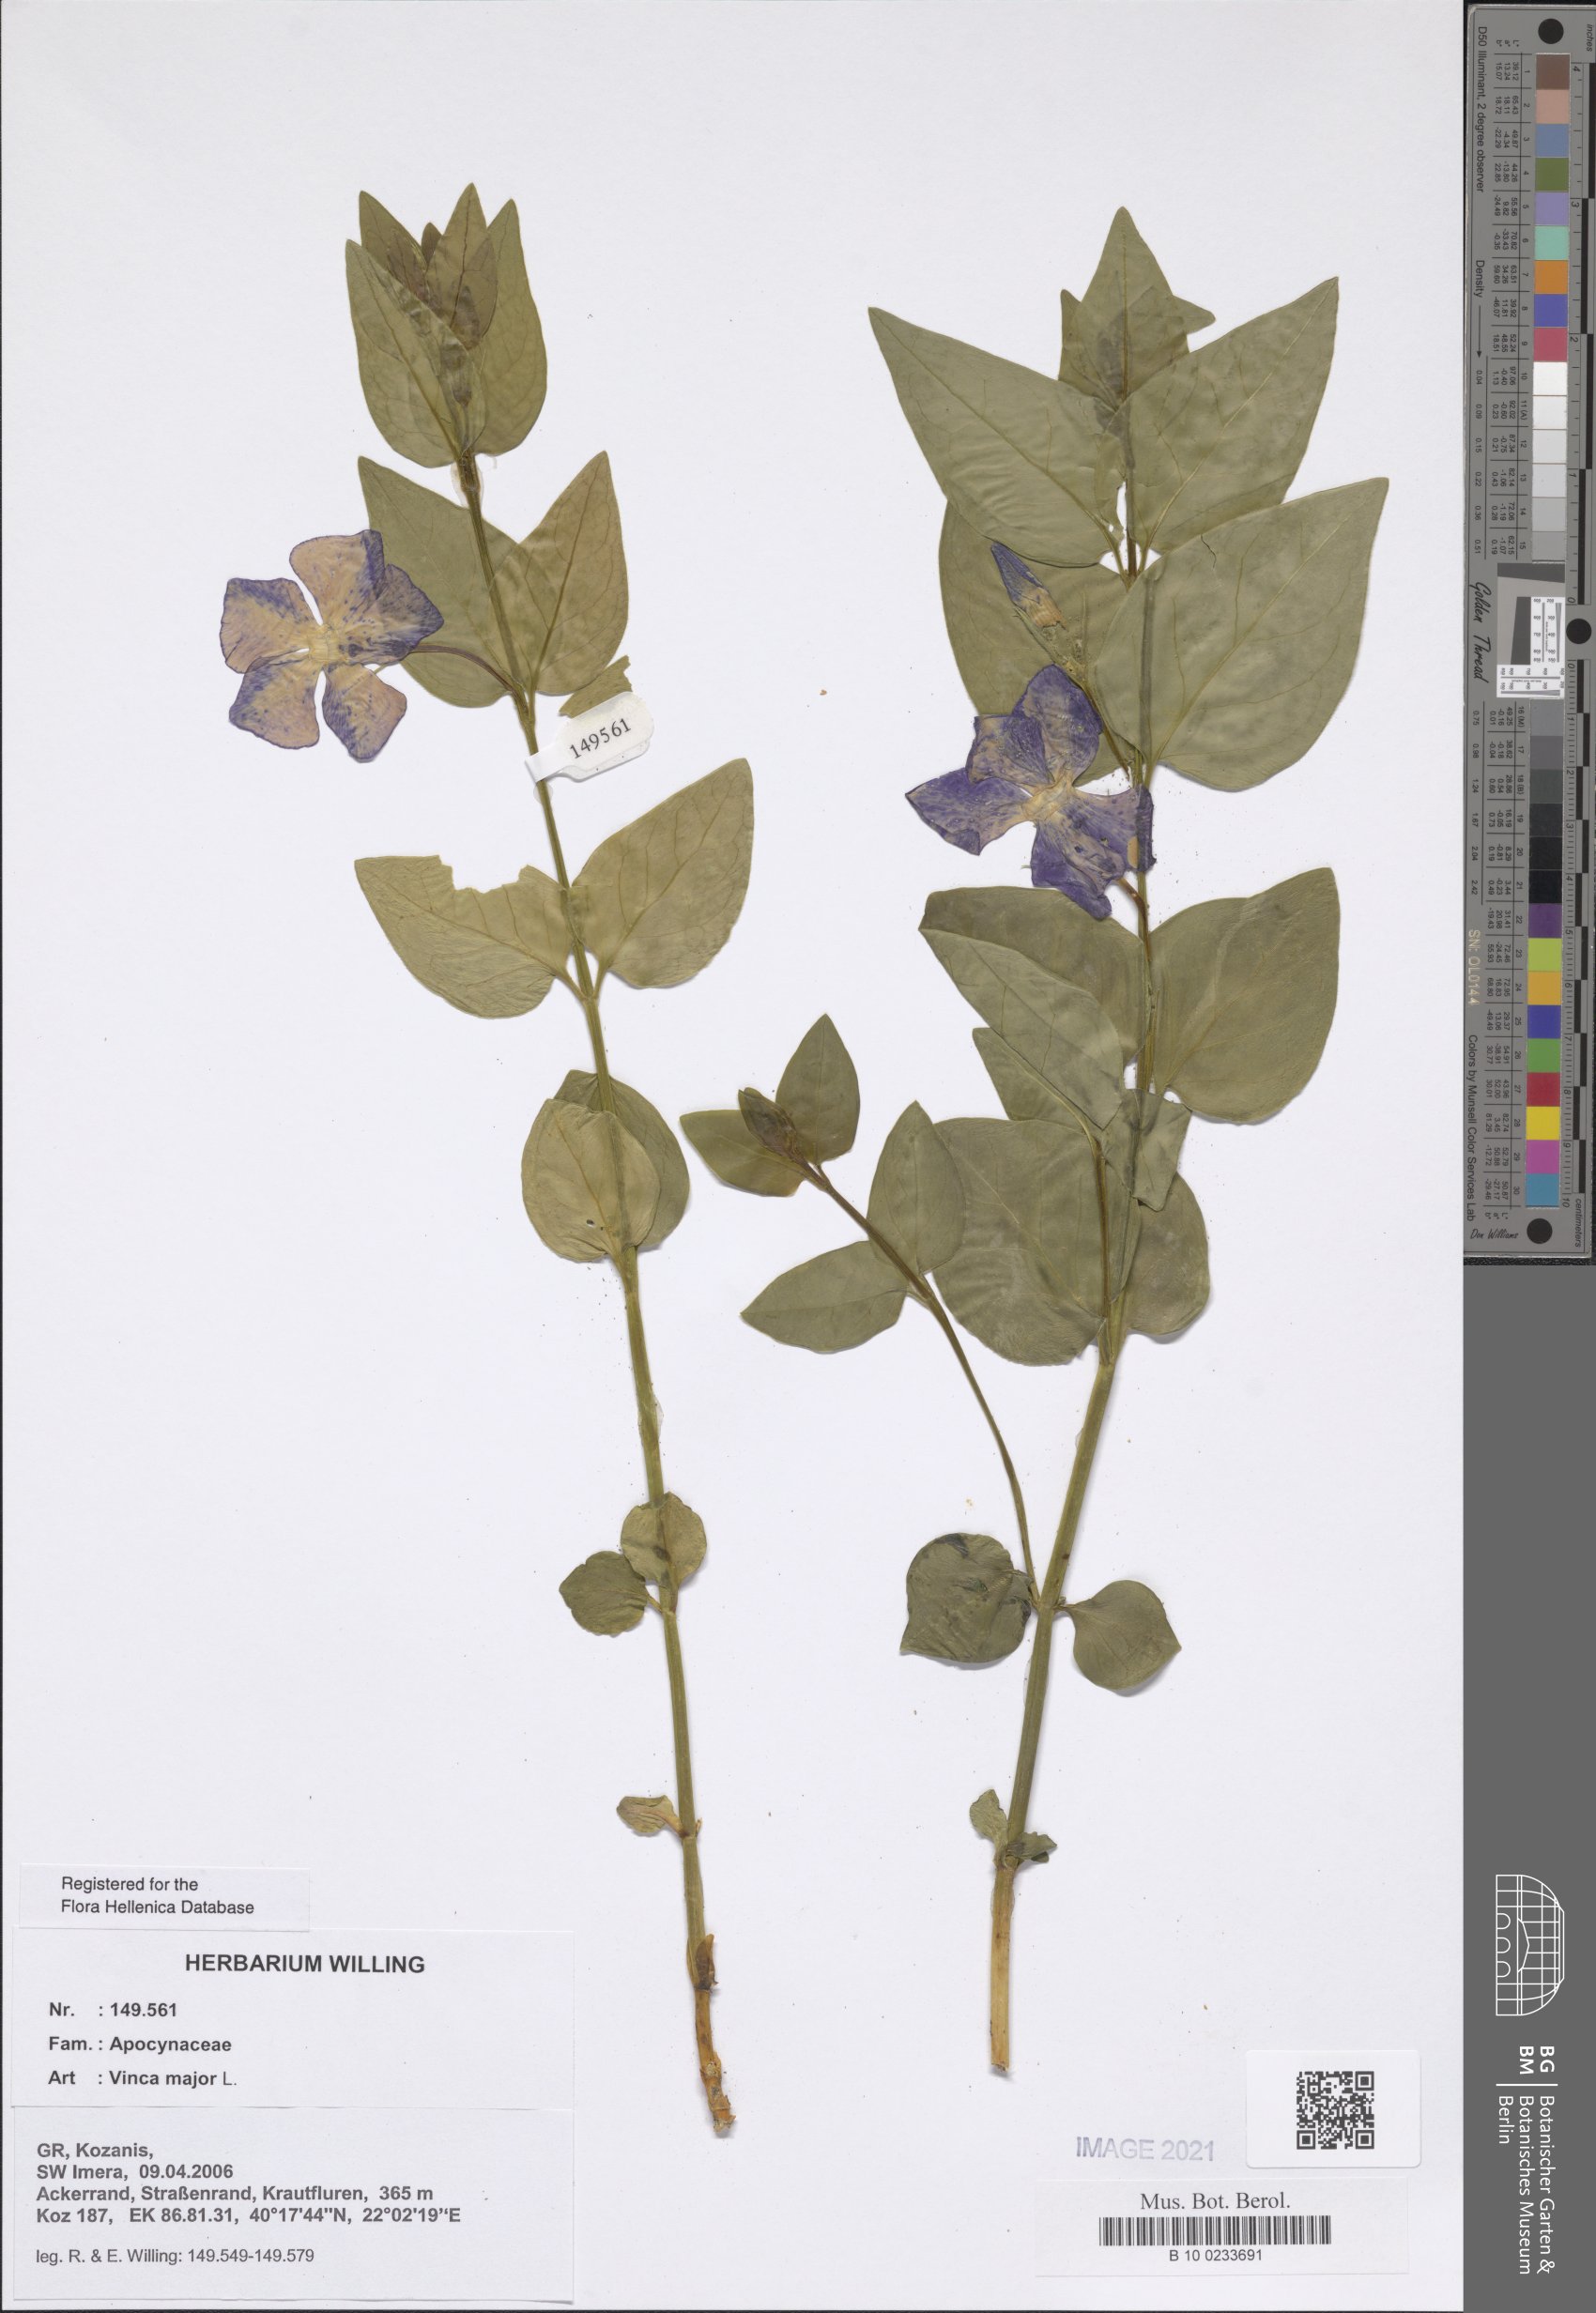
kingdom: Plantae
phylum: Tracheophyta
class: Magnoliopsida
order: Gentianales
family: Apocynaceae
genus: Vinca
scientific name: Vinca major
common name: Greater periwinkle
